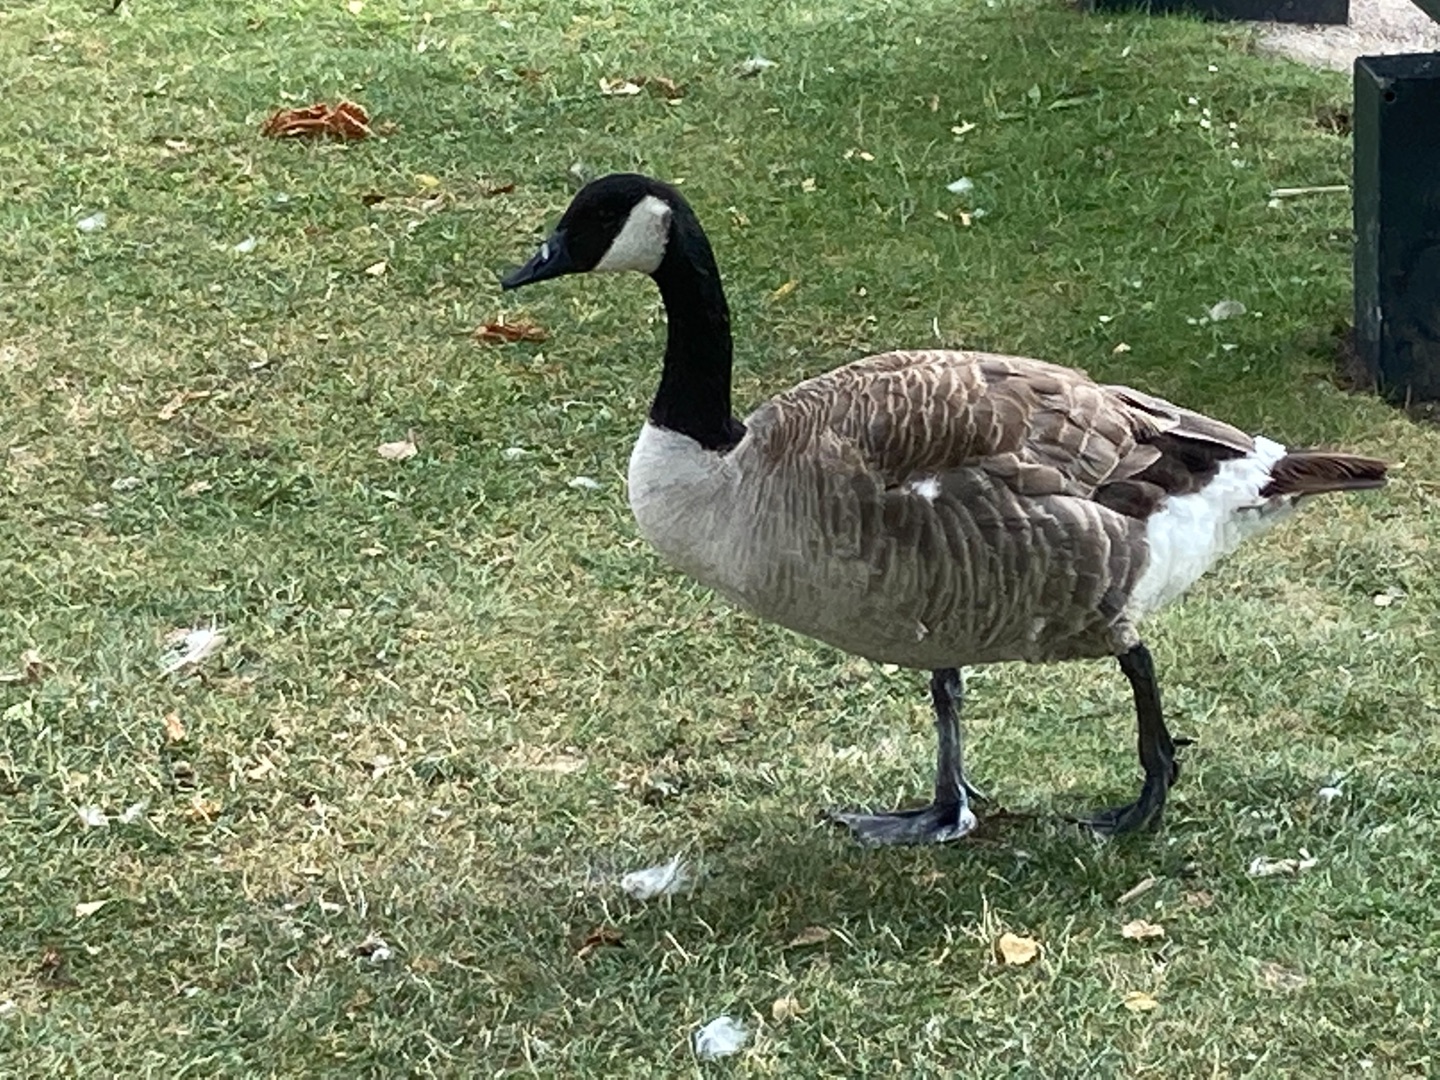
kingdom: Animalia
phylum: Chordata
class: Aves
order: Anseriformes
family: Anatidae
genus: Branta
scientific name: Branta canadensis
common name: Canadagås
